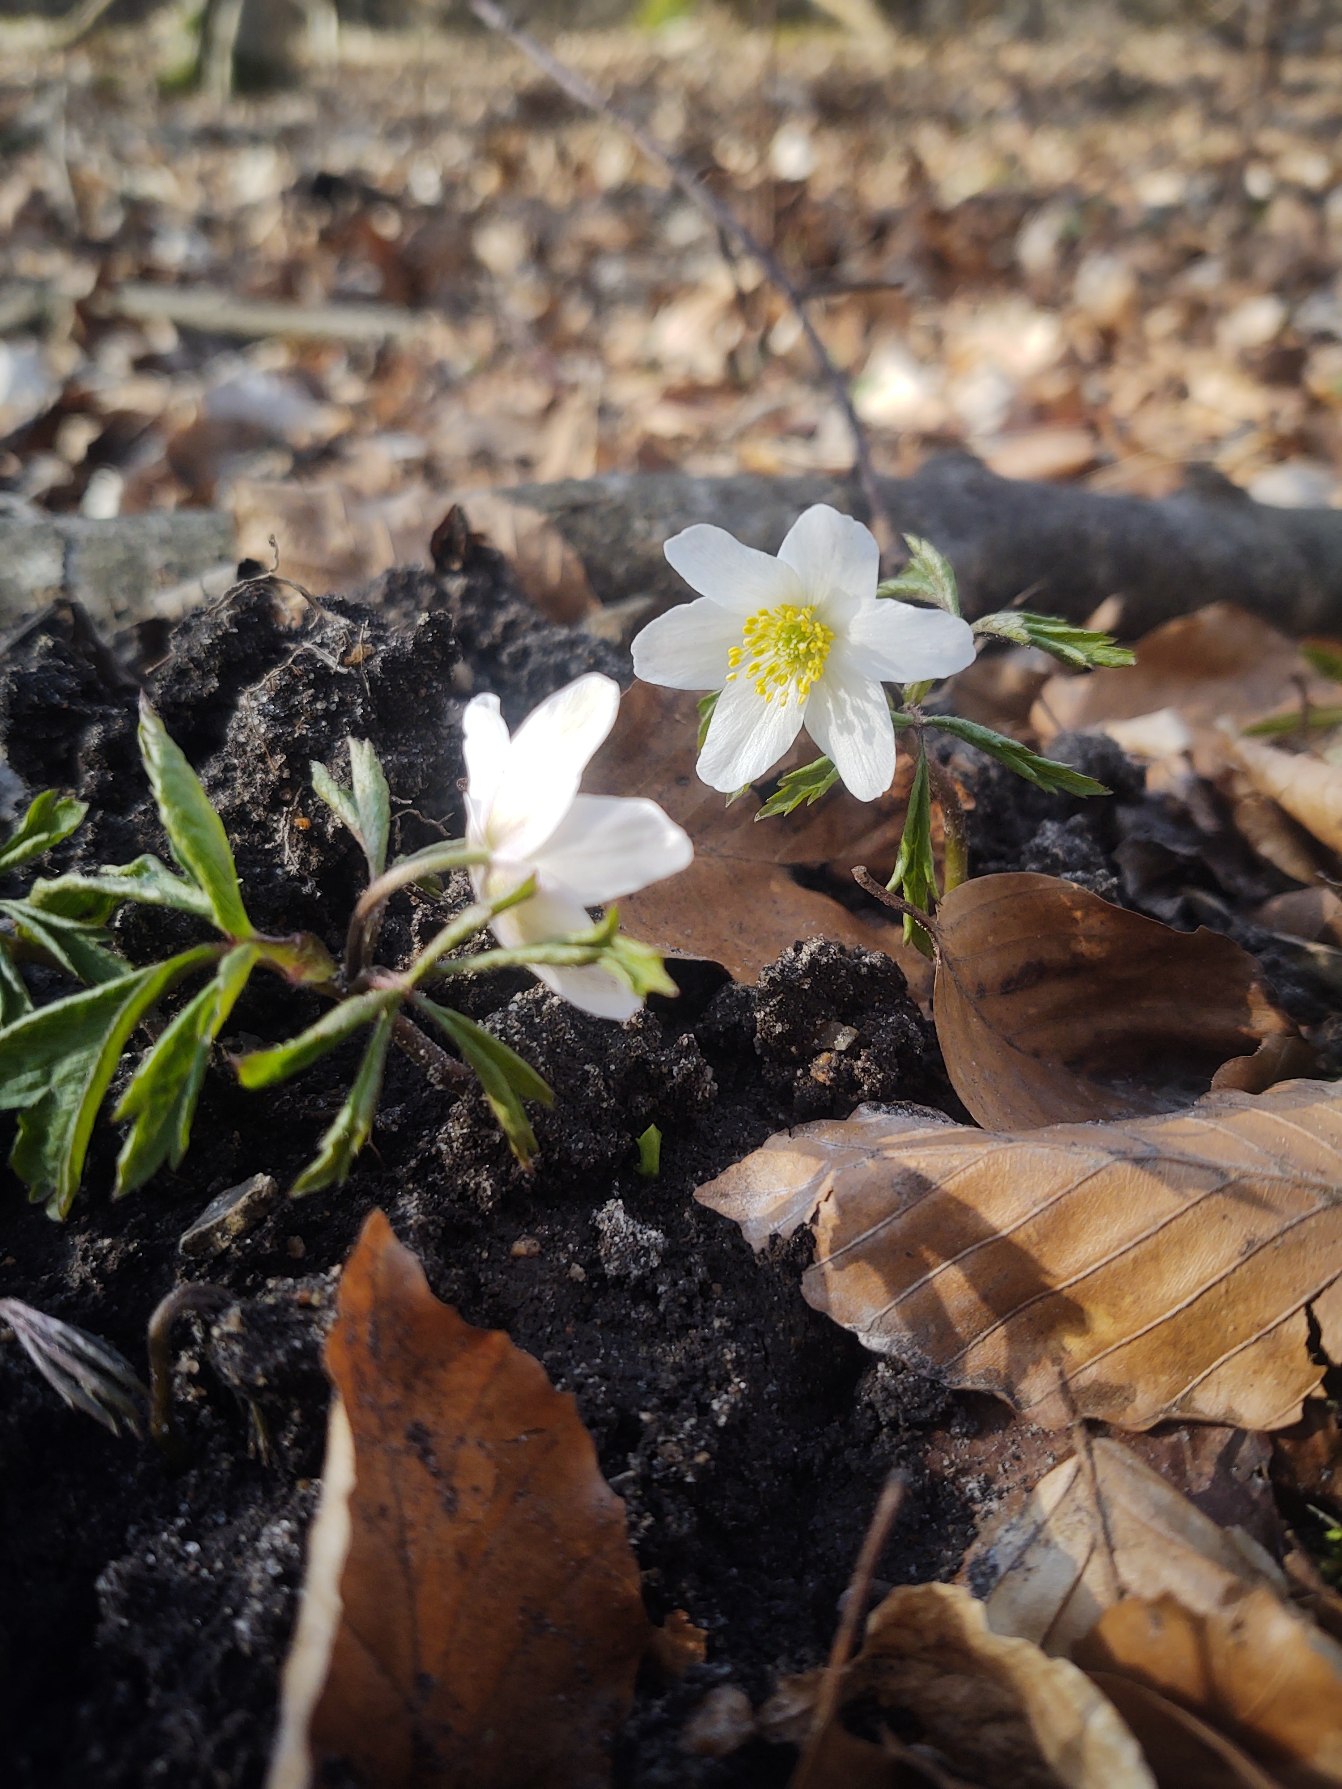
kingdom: Plantae
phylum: Tracheophyta
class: Magnoliopsida
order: Ranunculales
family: Ranunculaceae
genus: Anemone
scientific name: Anemone nemorosa
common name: Hvid anemone
